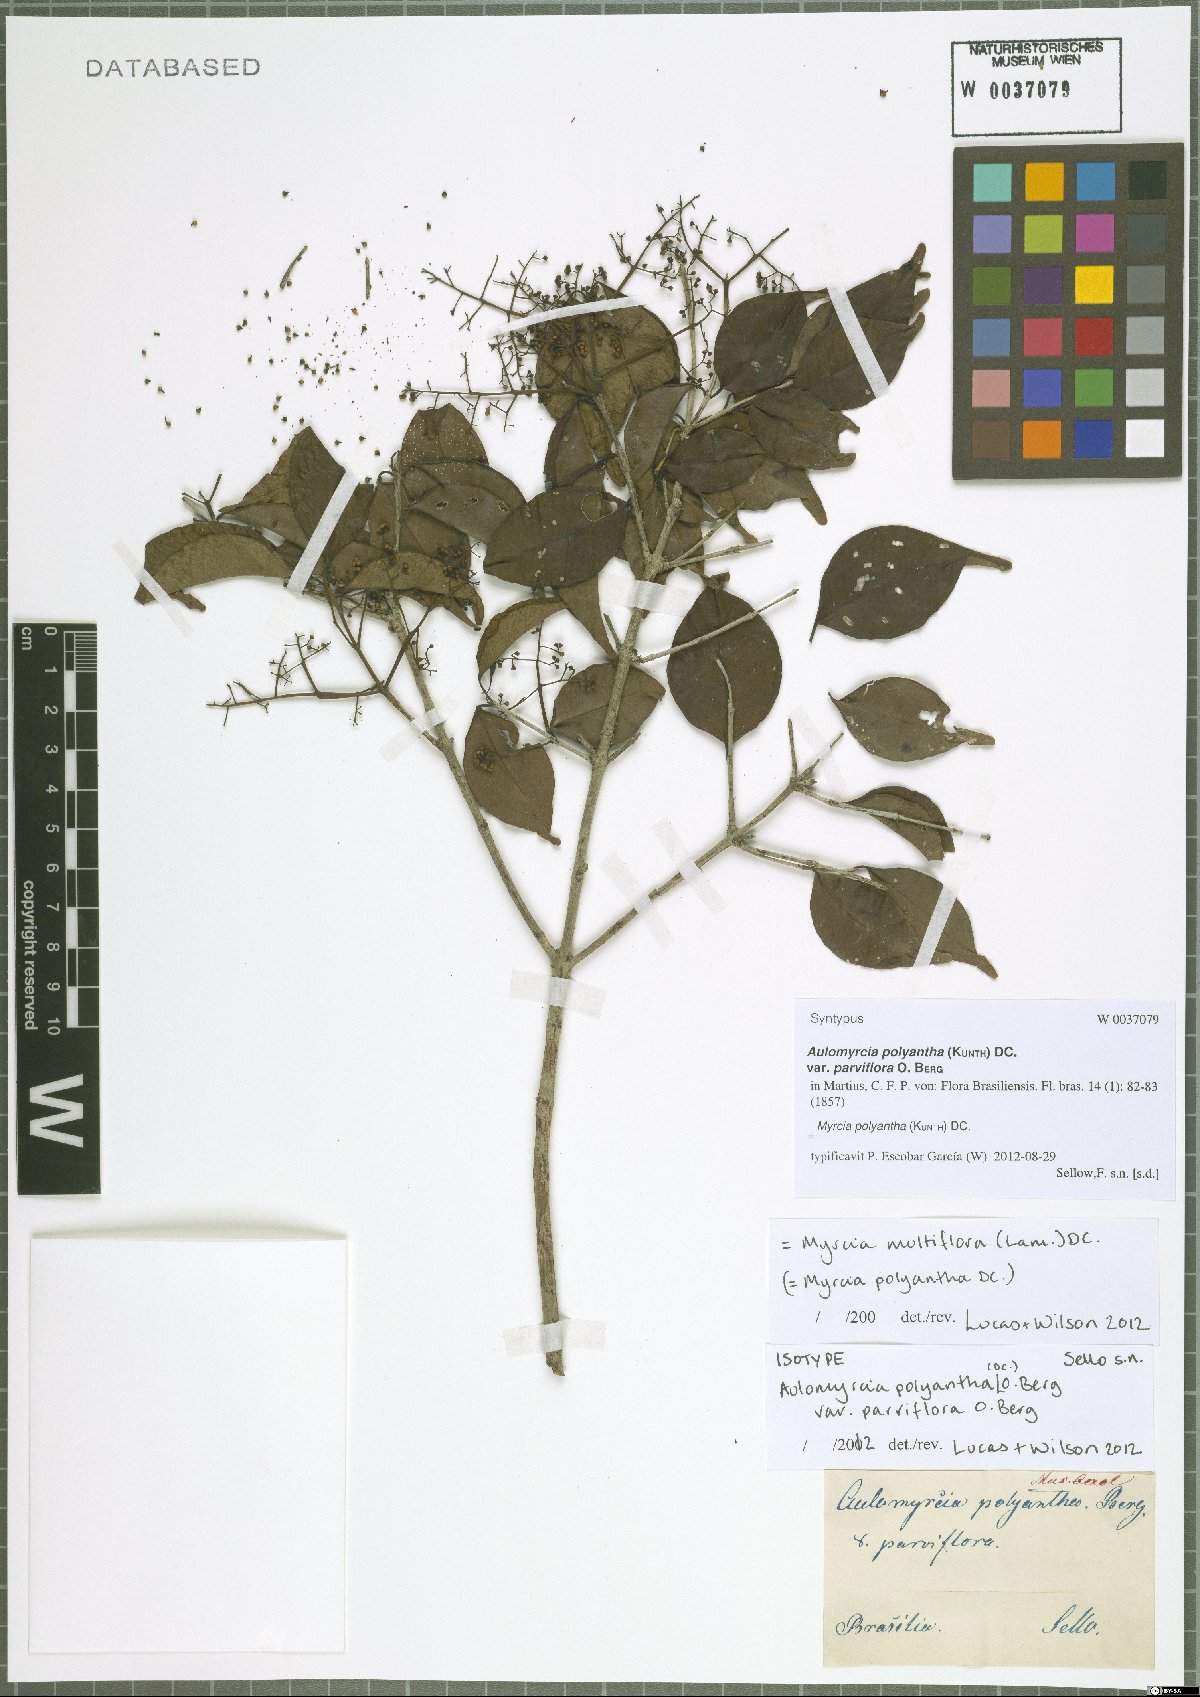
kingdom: Plantae
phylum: Tracheophyta
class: Magnoliopsida
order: Myrtales
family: Myrtaceae
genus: Myrcia
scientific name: Myrcia neopolyantha
